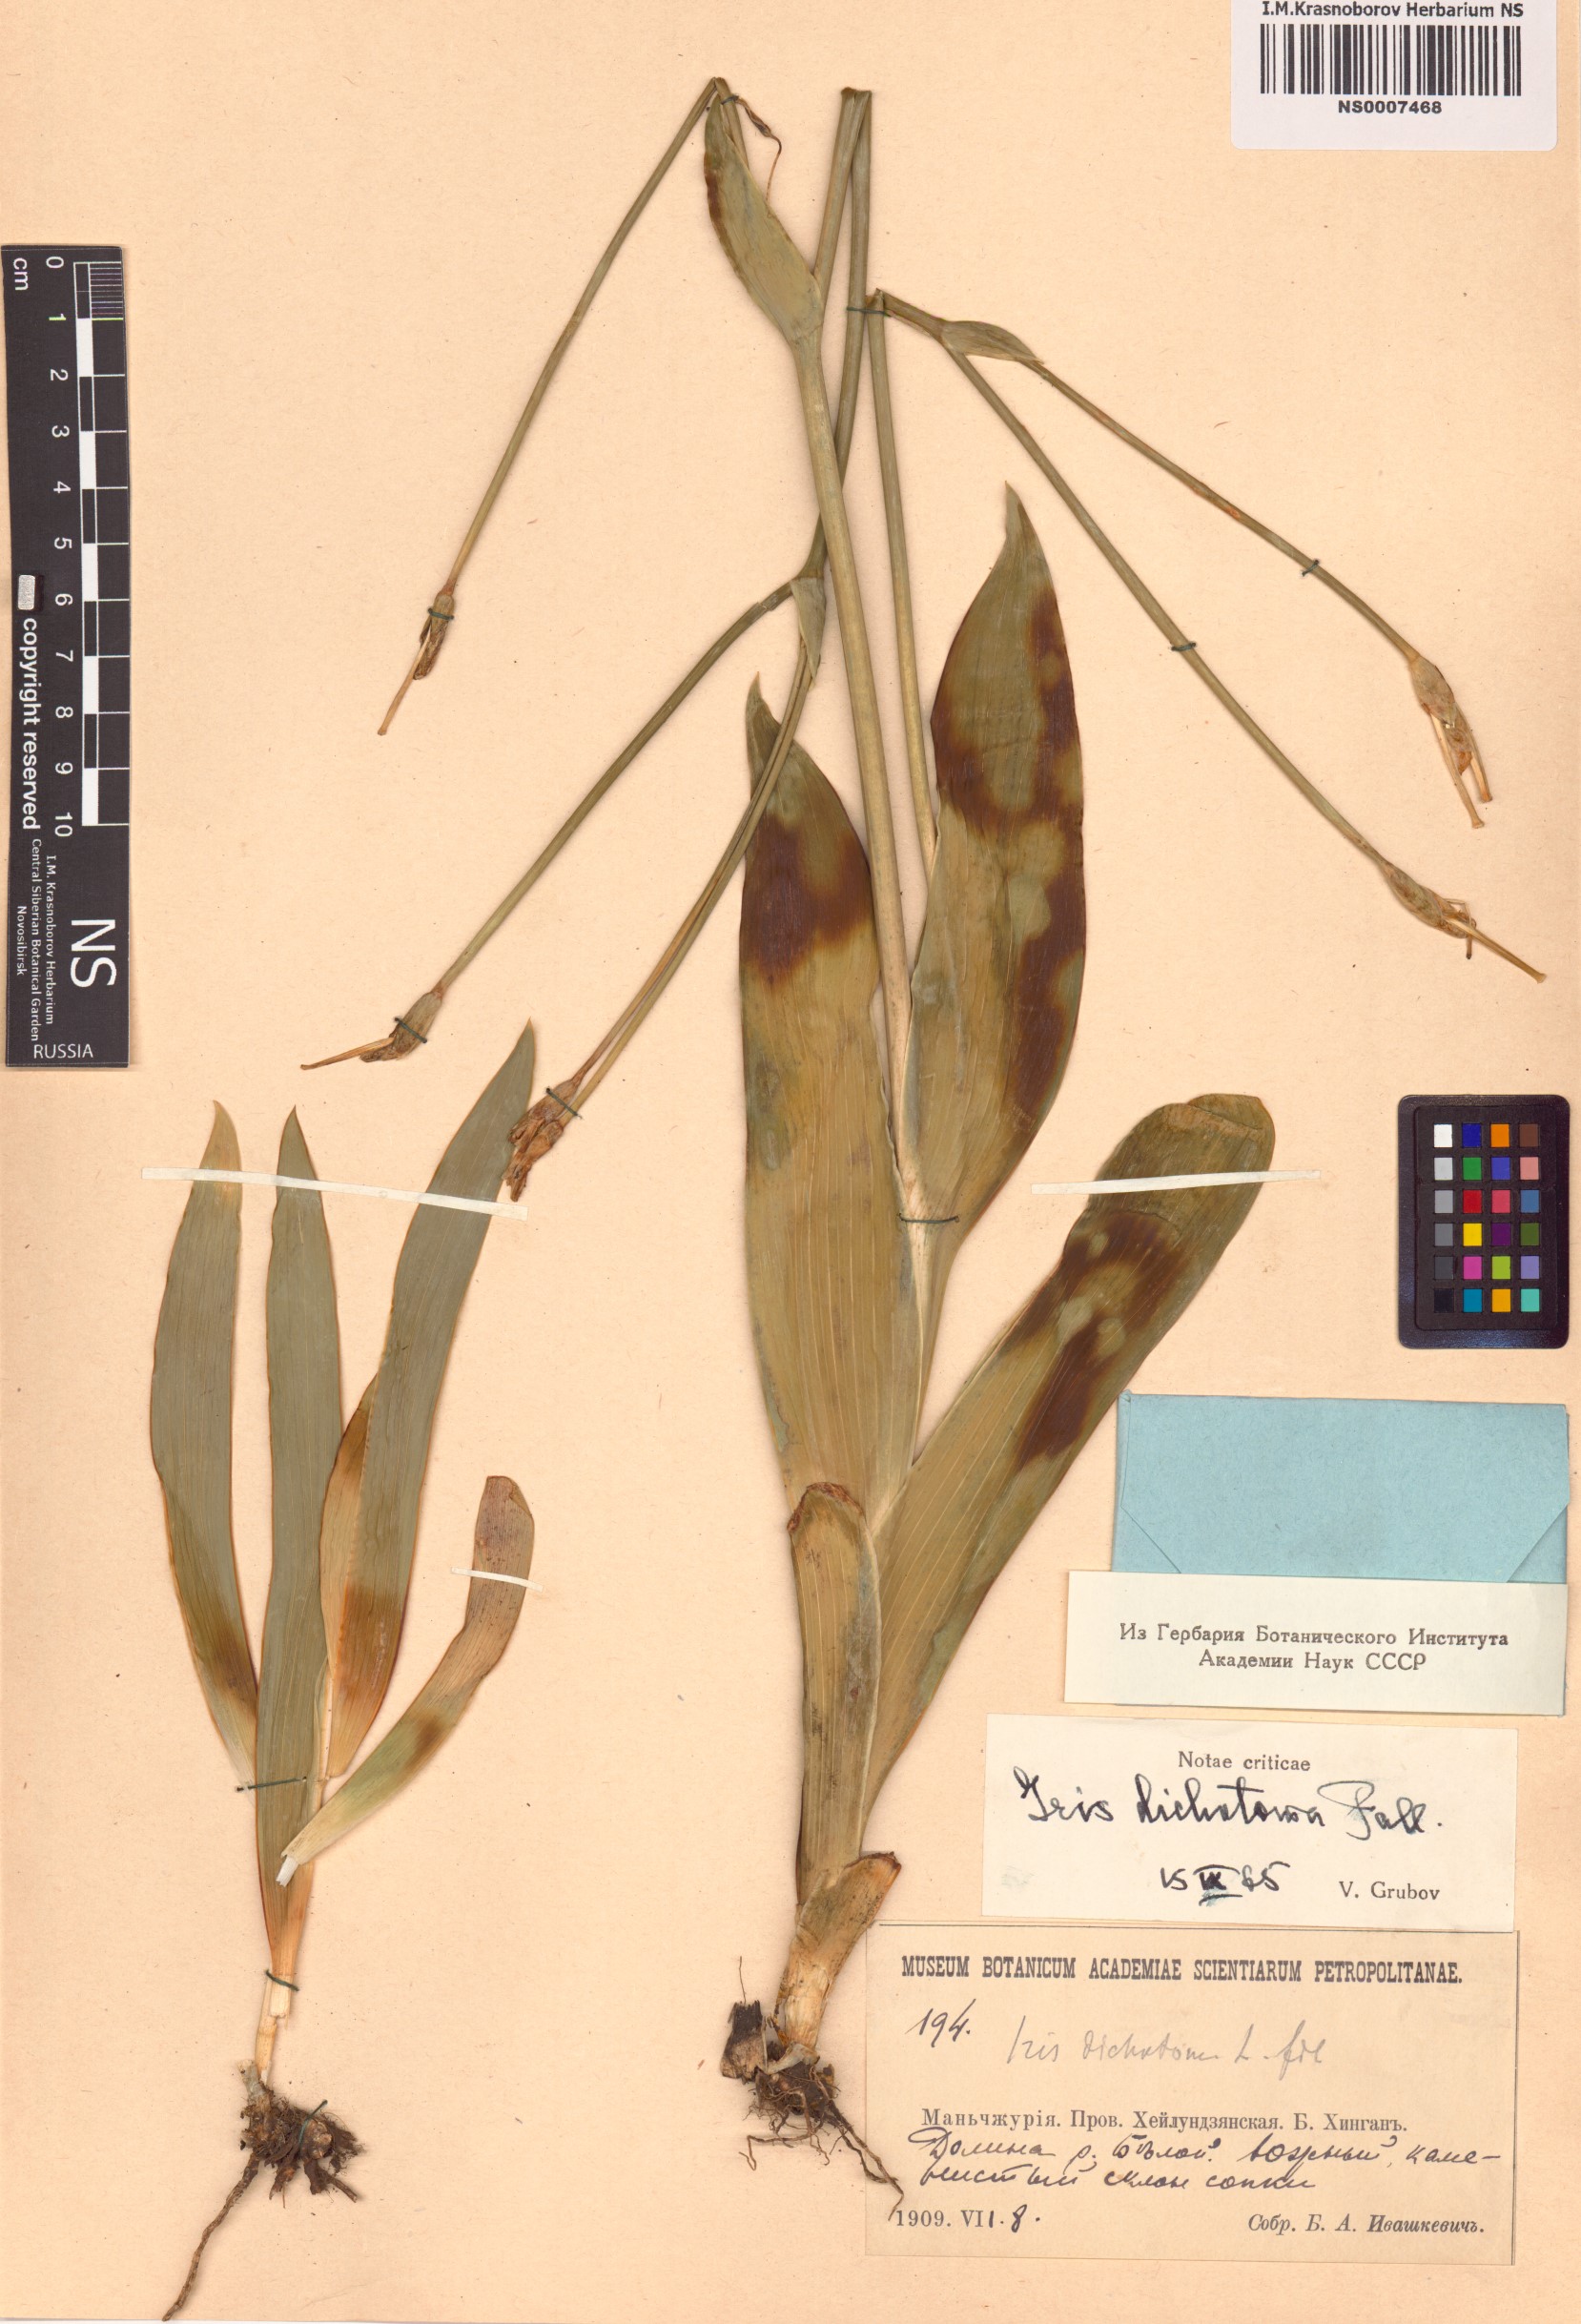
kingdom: Plantae
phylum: Tracheophyta
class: Liliopsida
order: Asparagales
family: Iridaceae
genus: Iris
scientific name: Iris dichotoma
